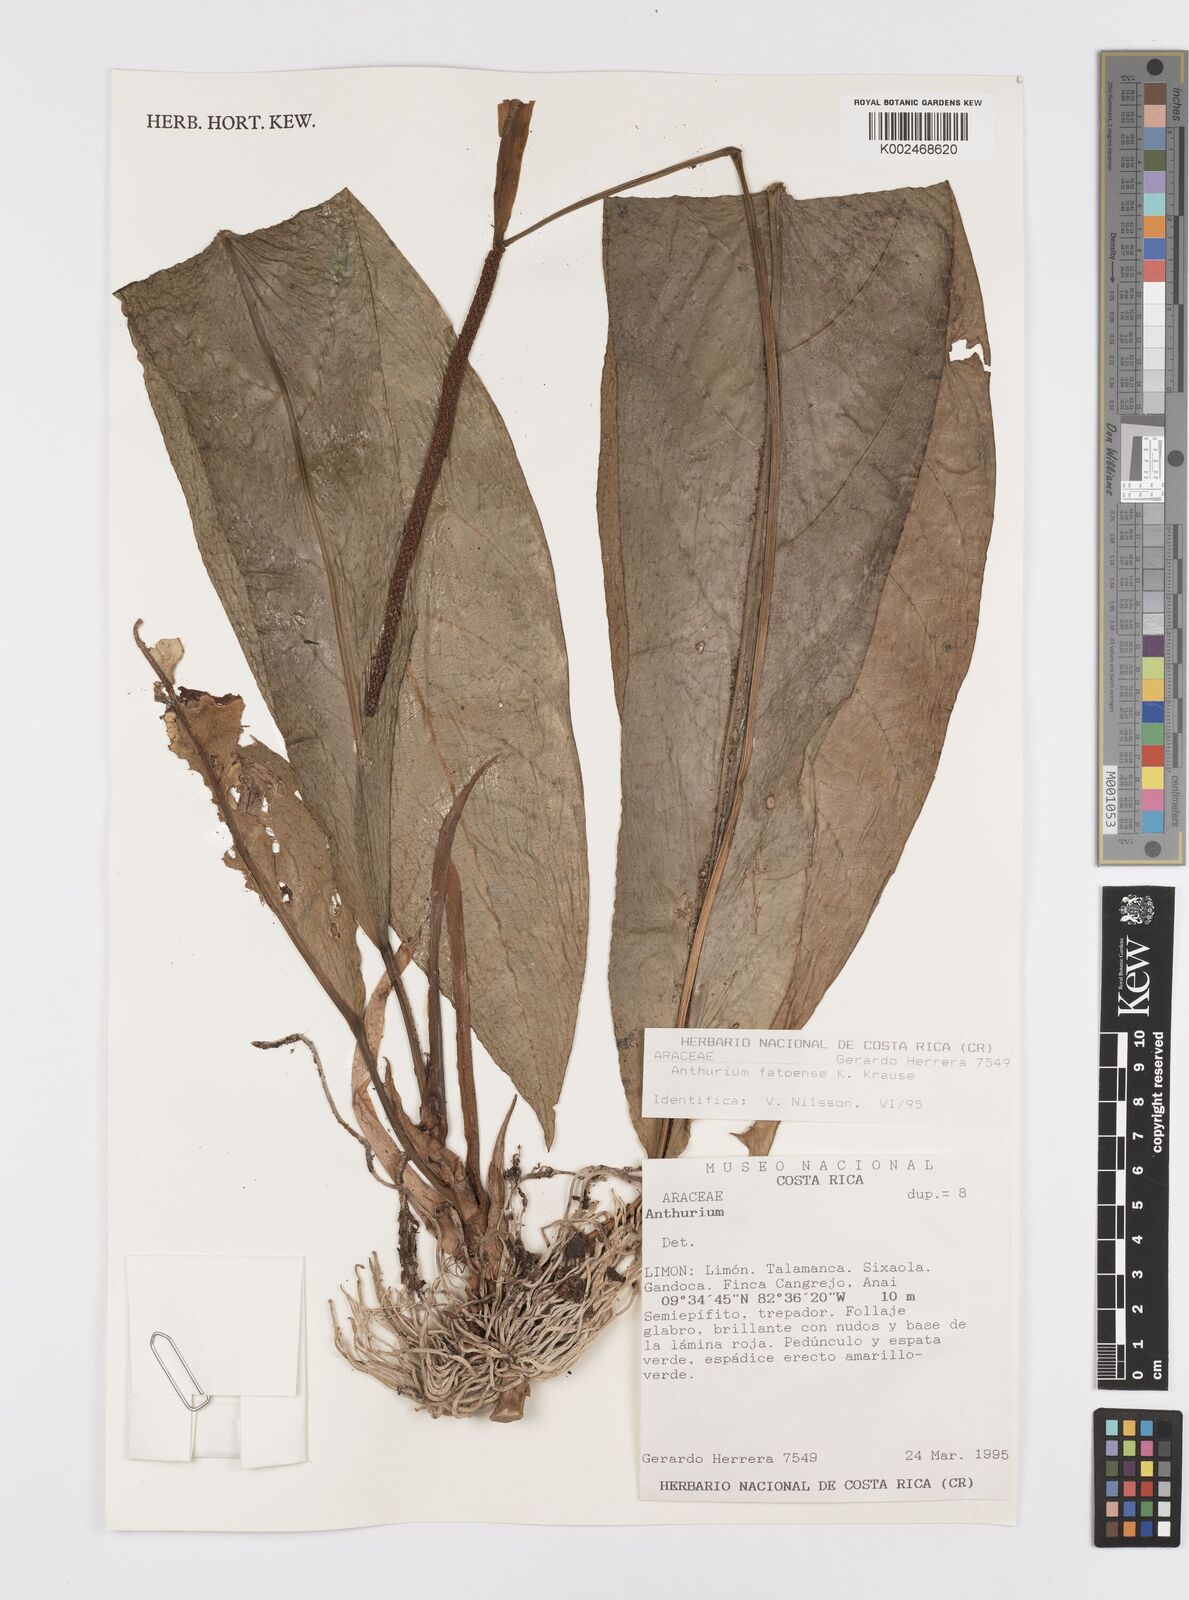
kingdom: Plantae
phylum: Tracheophyta
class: Liliopsida
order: Alismatales
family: Araceae
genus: Anthurium
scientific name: Anthurium fatoense
